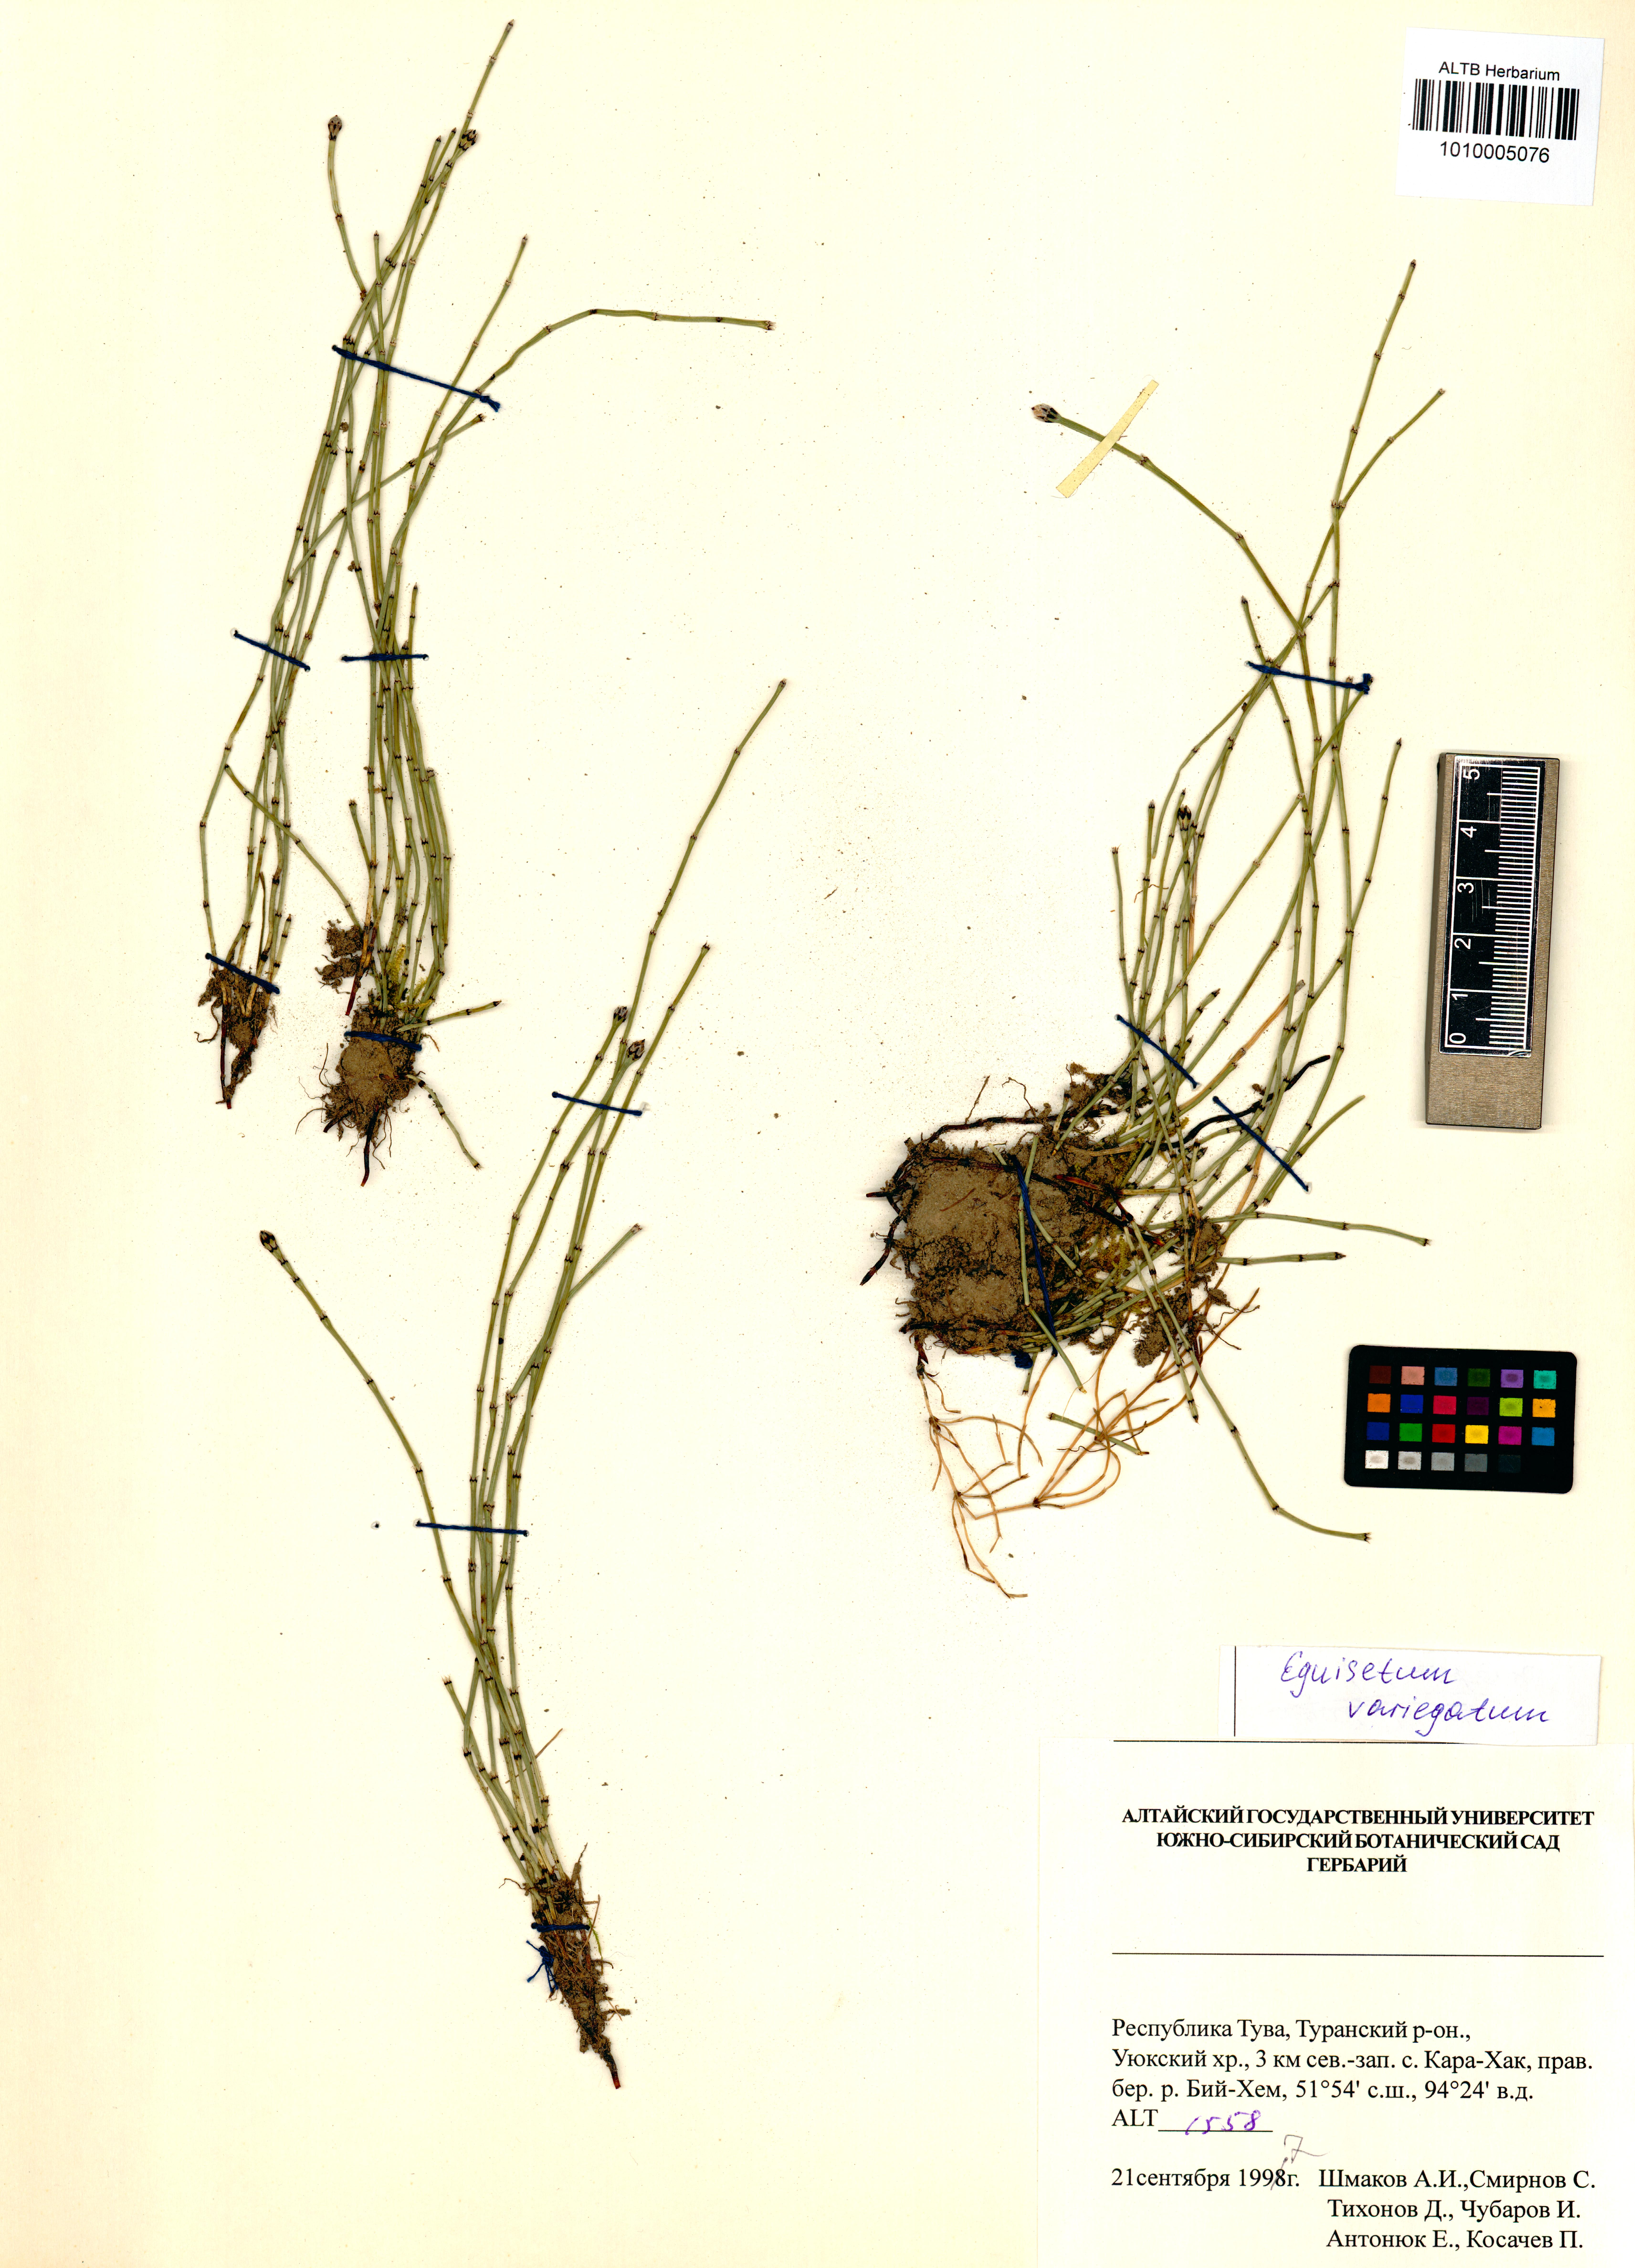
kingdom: Plantae
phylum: Tracheophyta
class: Polypodiopsida
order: Equisetales
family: Equisetaceae
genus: Equisetum
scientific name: Equisetum variegatum
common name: Variegated horsetail
